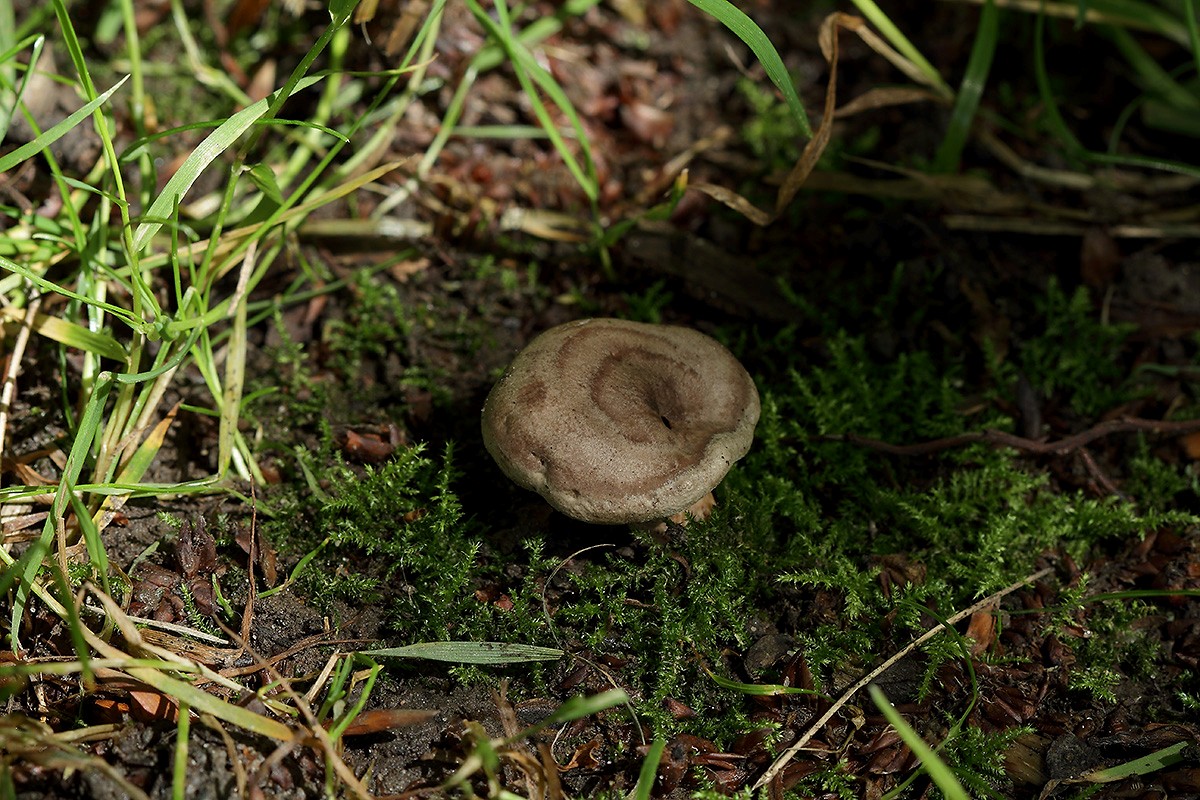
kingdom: Fungi
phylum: Basidiomycota
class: Agaricomycetes
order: Russulales
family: Russulaceae
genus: Lactarius
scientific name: Lactarius circellatus
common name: avnbøg-mælkehat
